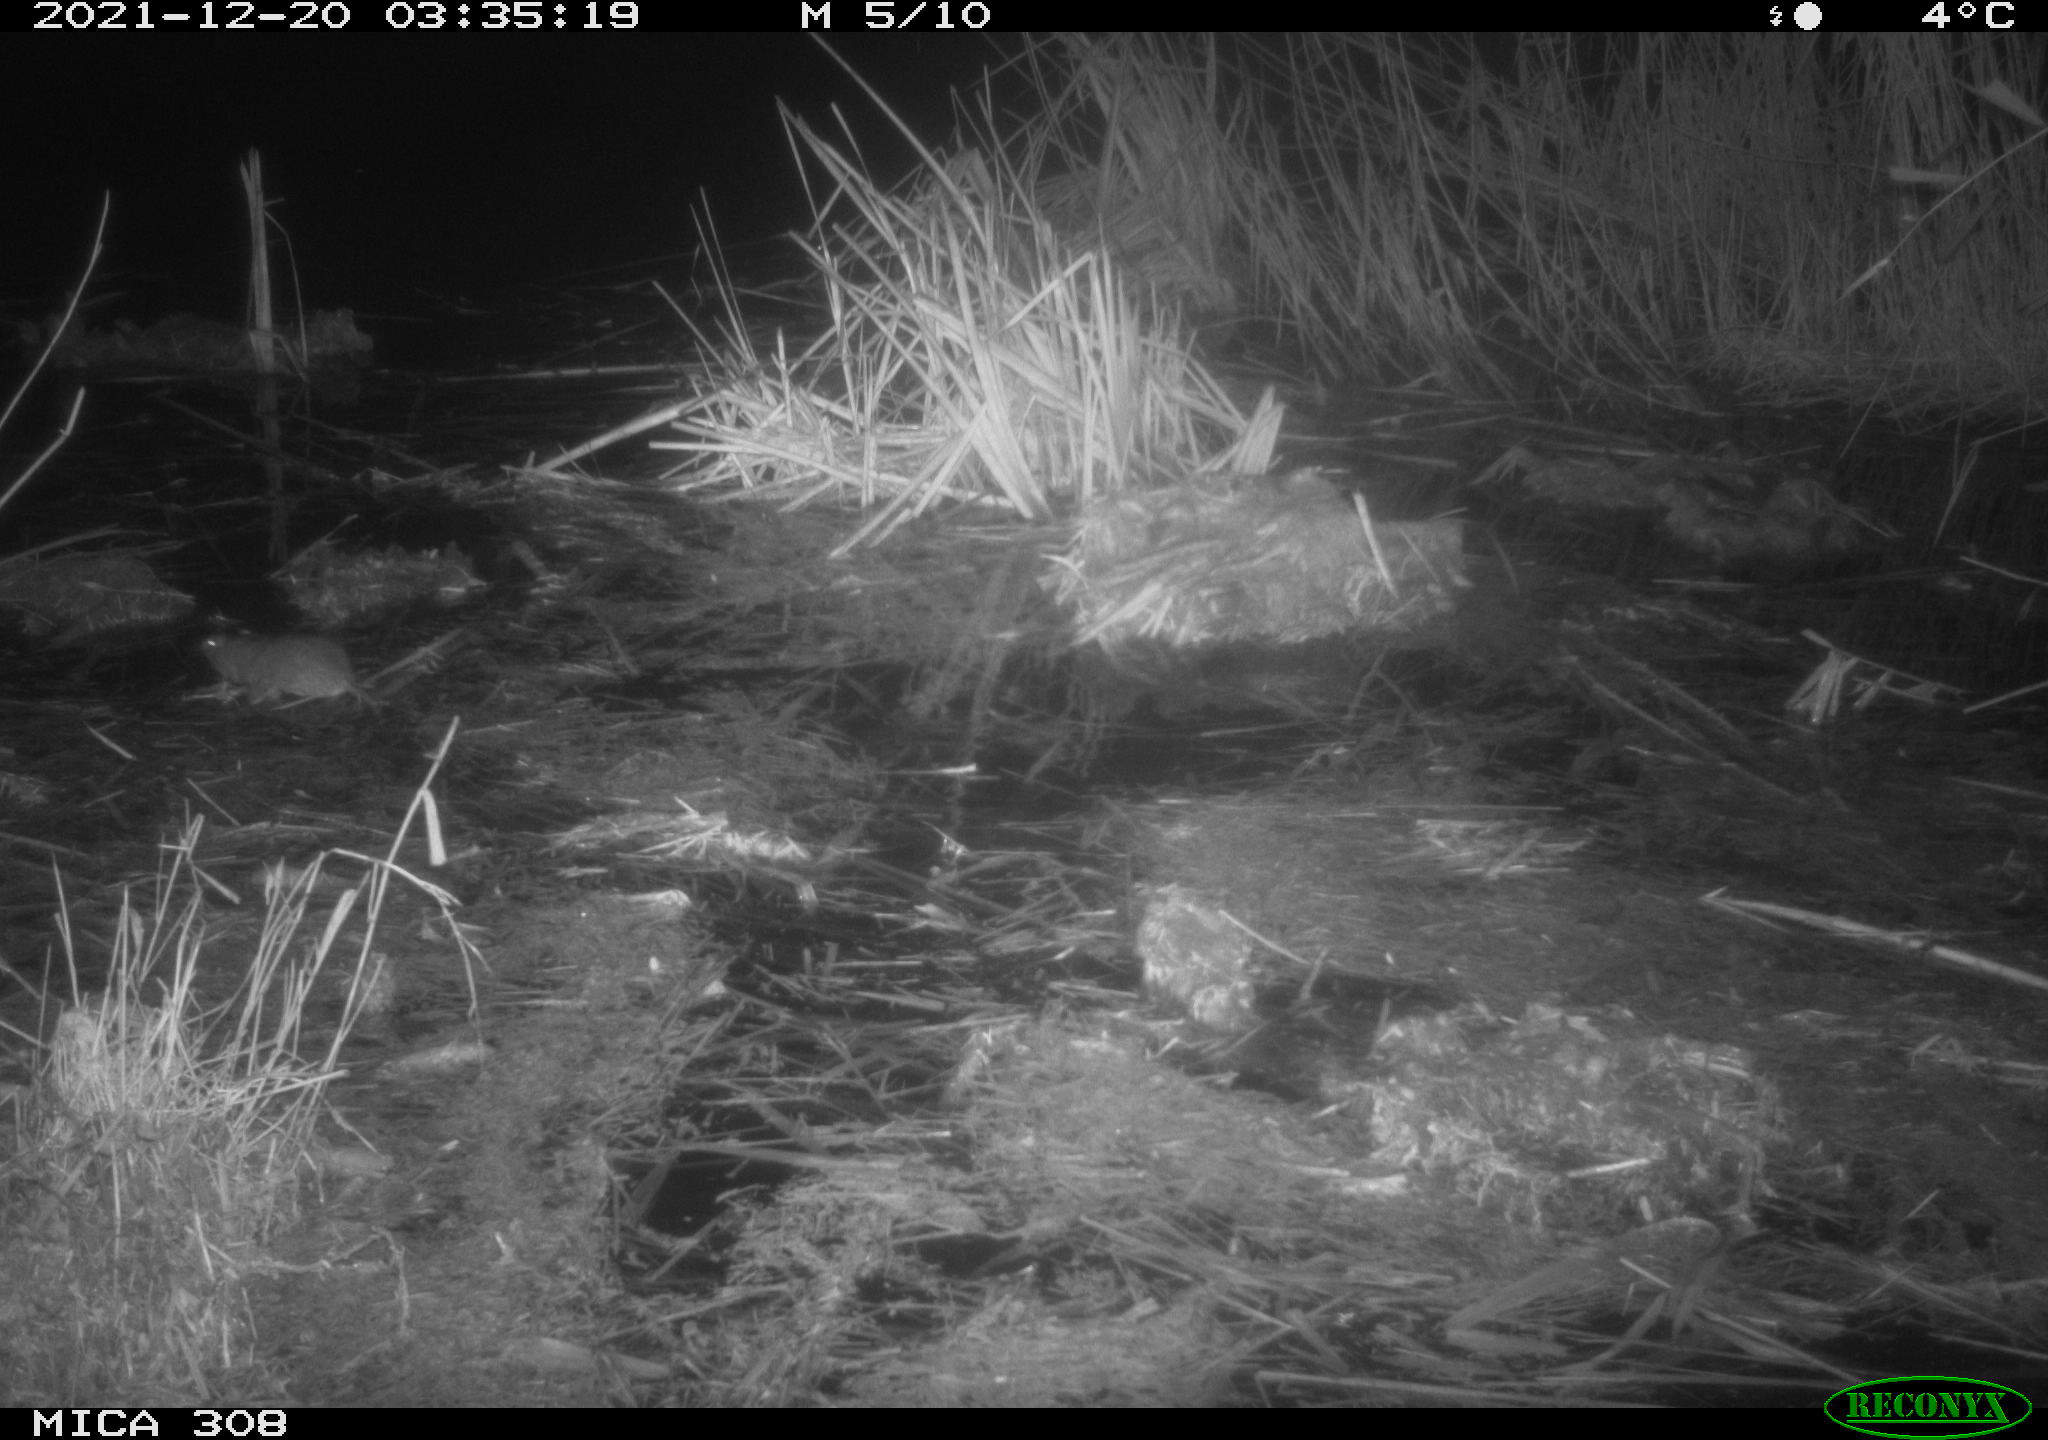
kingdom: Animalia
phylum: Chordata
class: Mammalia
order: Rodentia
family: Muridae
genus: Rattus
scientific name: Rattus norvegicus
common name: Brown rat
